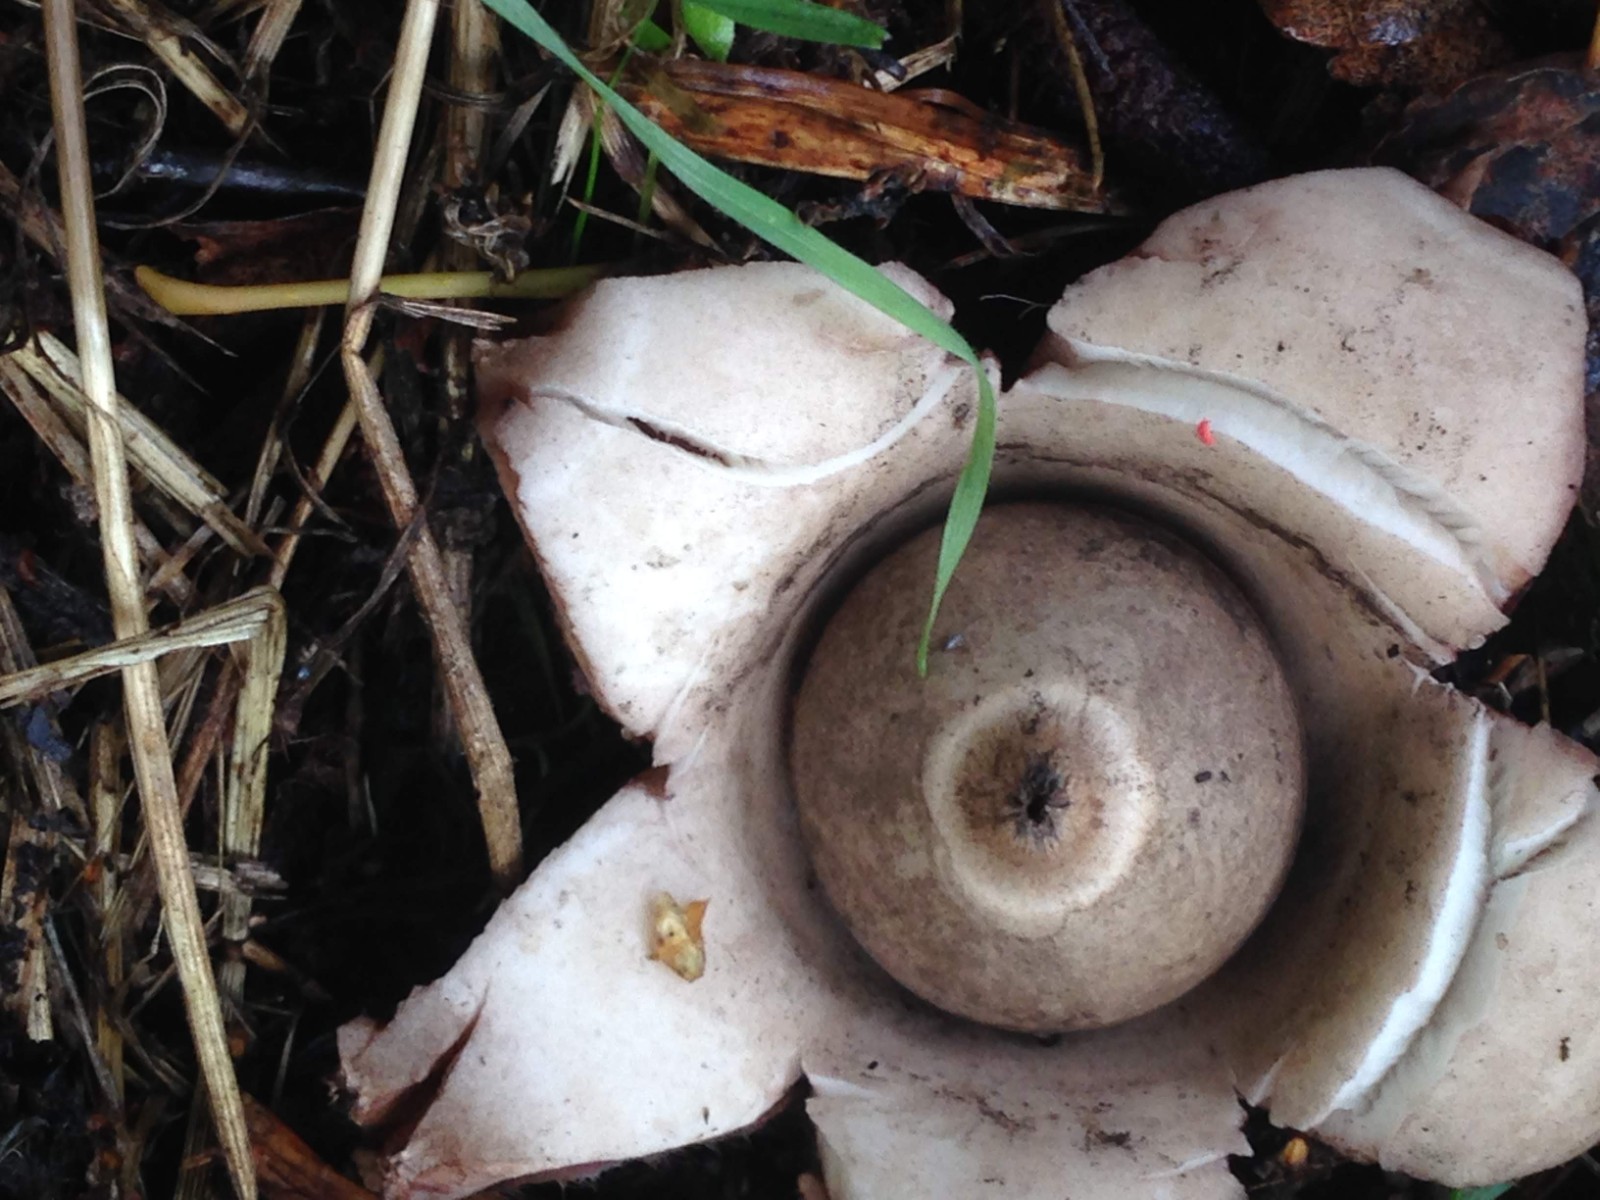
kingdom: Fungi
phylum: Basidiomycota
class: Agaricomycetes
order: Geastrales
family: Geastraceae
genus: Geastrum
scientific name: Geastrum michelianum
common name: kødet stjernebold
